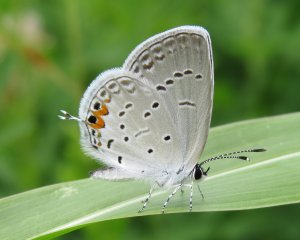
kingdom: Animalia
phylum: Arthropoda
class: Insecta
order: Lepidoptera
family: Lycaenidae
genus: Elkalyce
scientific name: Elkalyce comyntas
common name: Eastern Tailed-Blue
